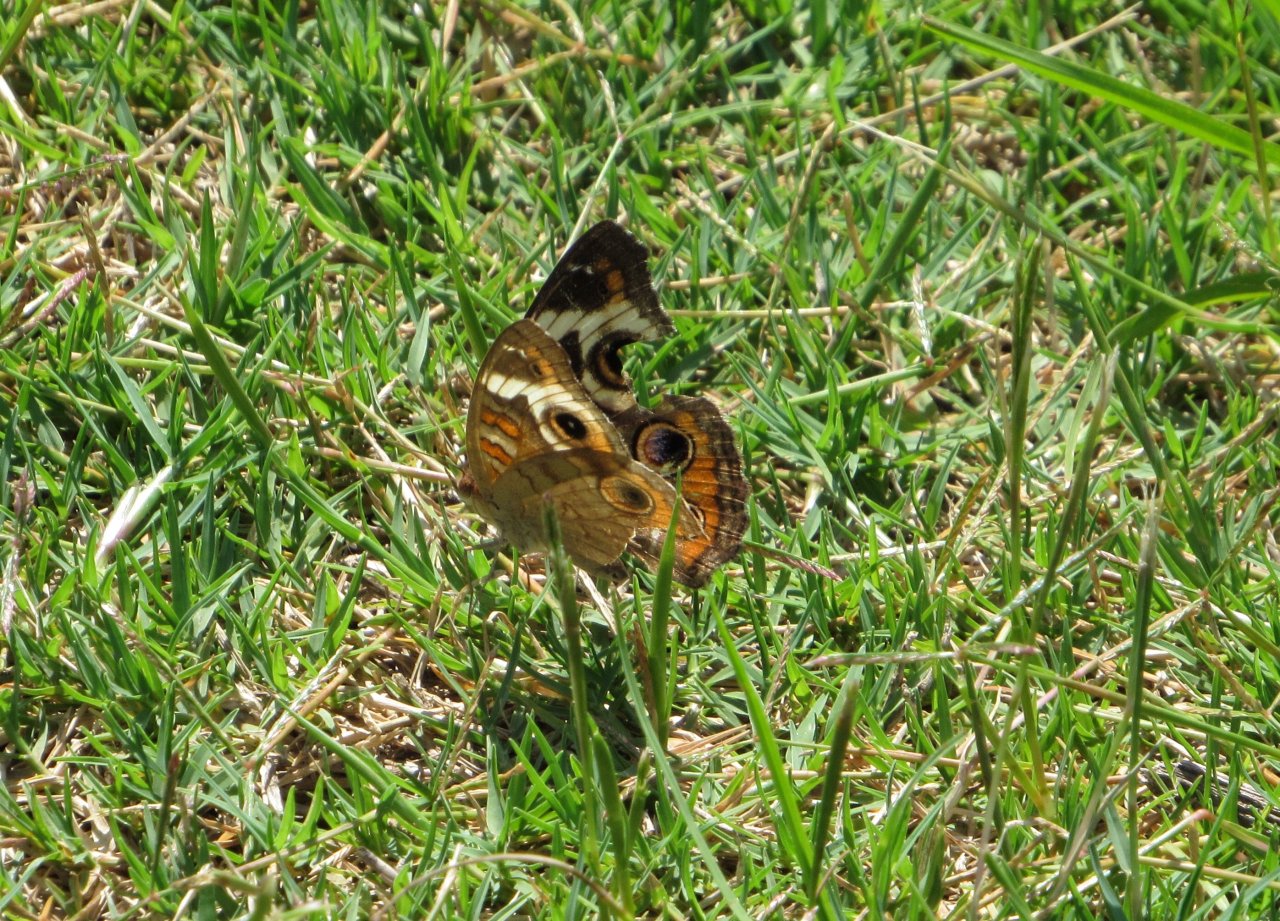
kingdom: Animalia
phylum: Arthropoda
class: Insecta
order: Lepidoptera
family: Nymphalidae
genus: Junonia
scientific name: Junonia coenia
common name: Common Buckeye
